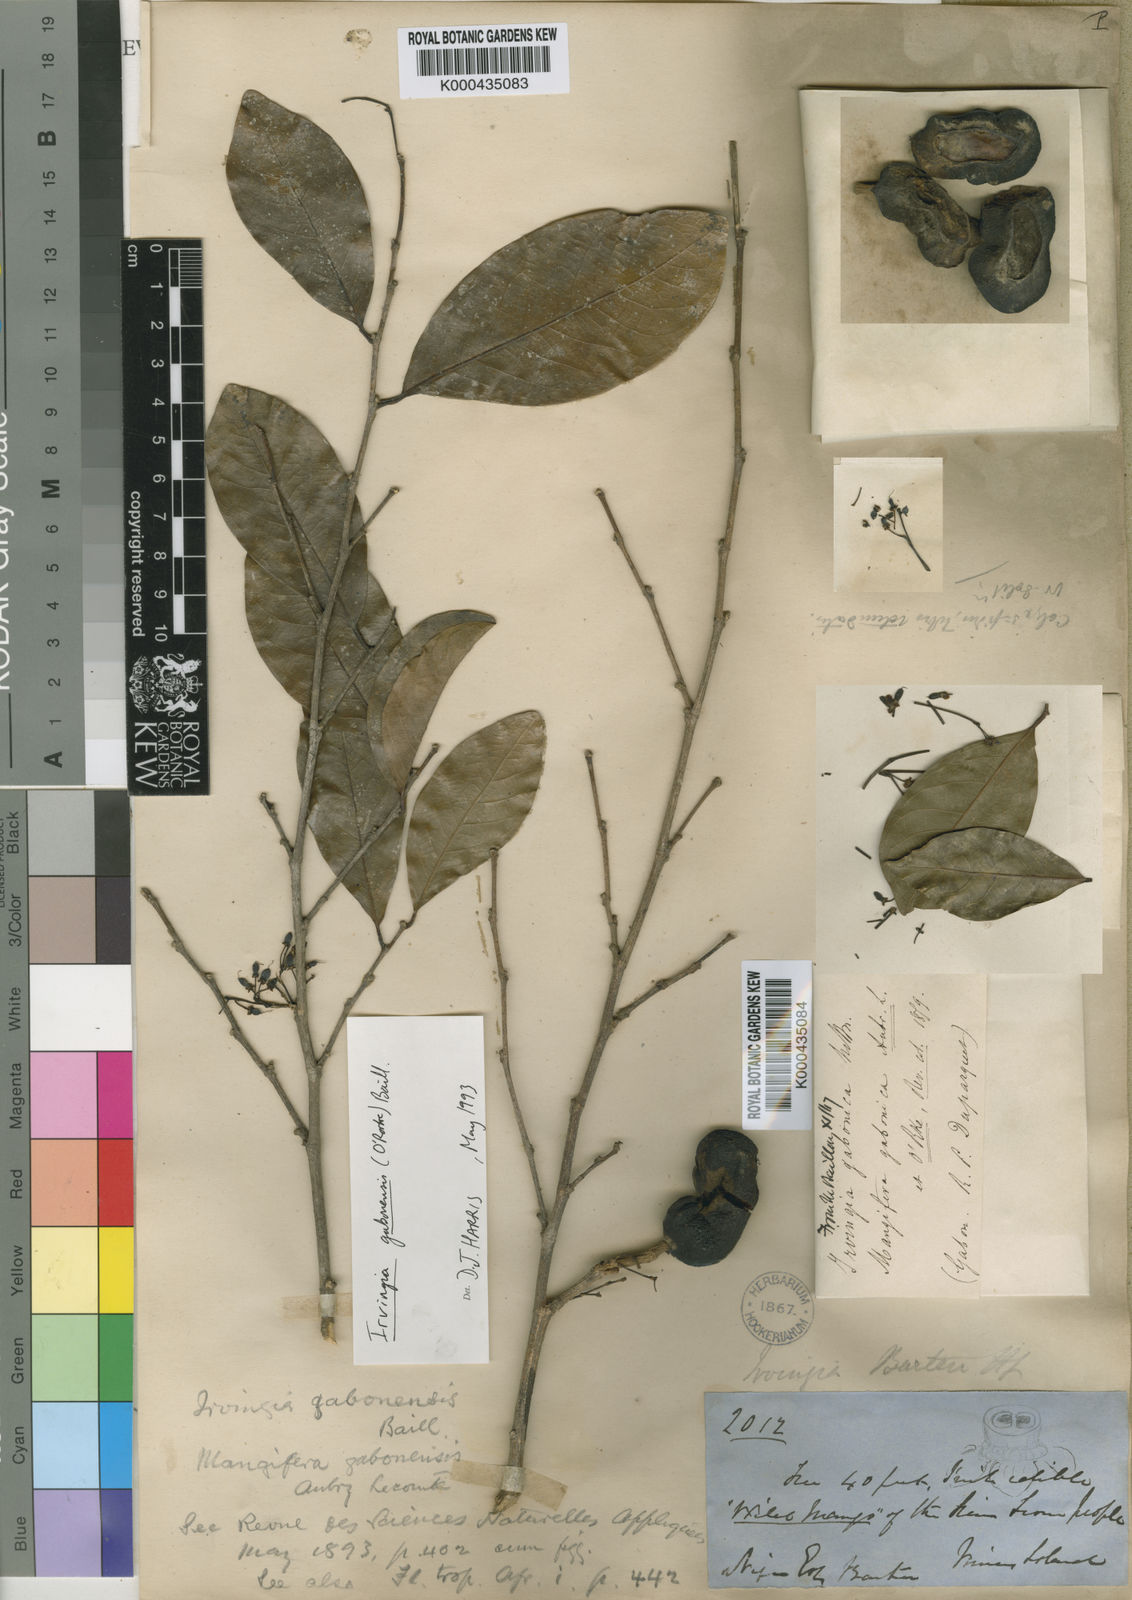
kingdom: Plantae
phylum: Tracheophyta
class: Magnoliopsida
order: Malpighiales
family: Irvingiaceae
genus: Irvingia
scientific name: Irvingia gabonensis
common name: Rainy season bush-mango
